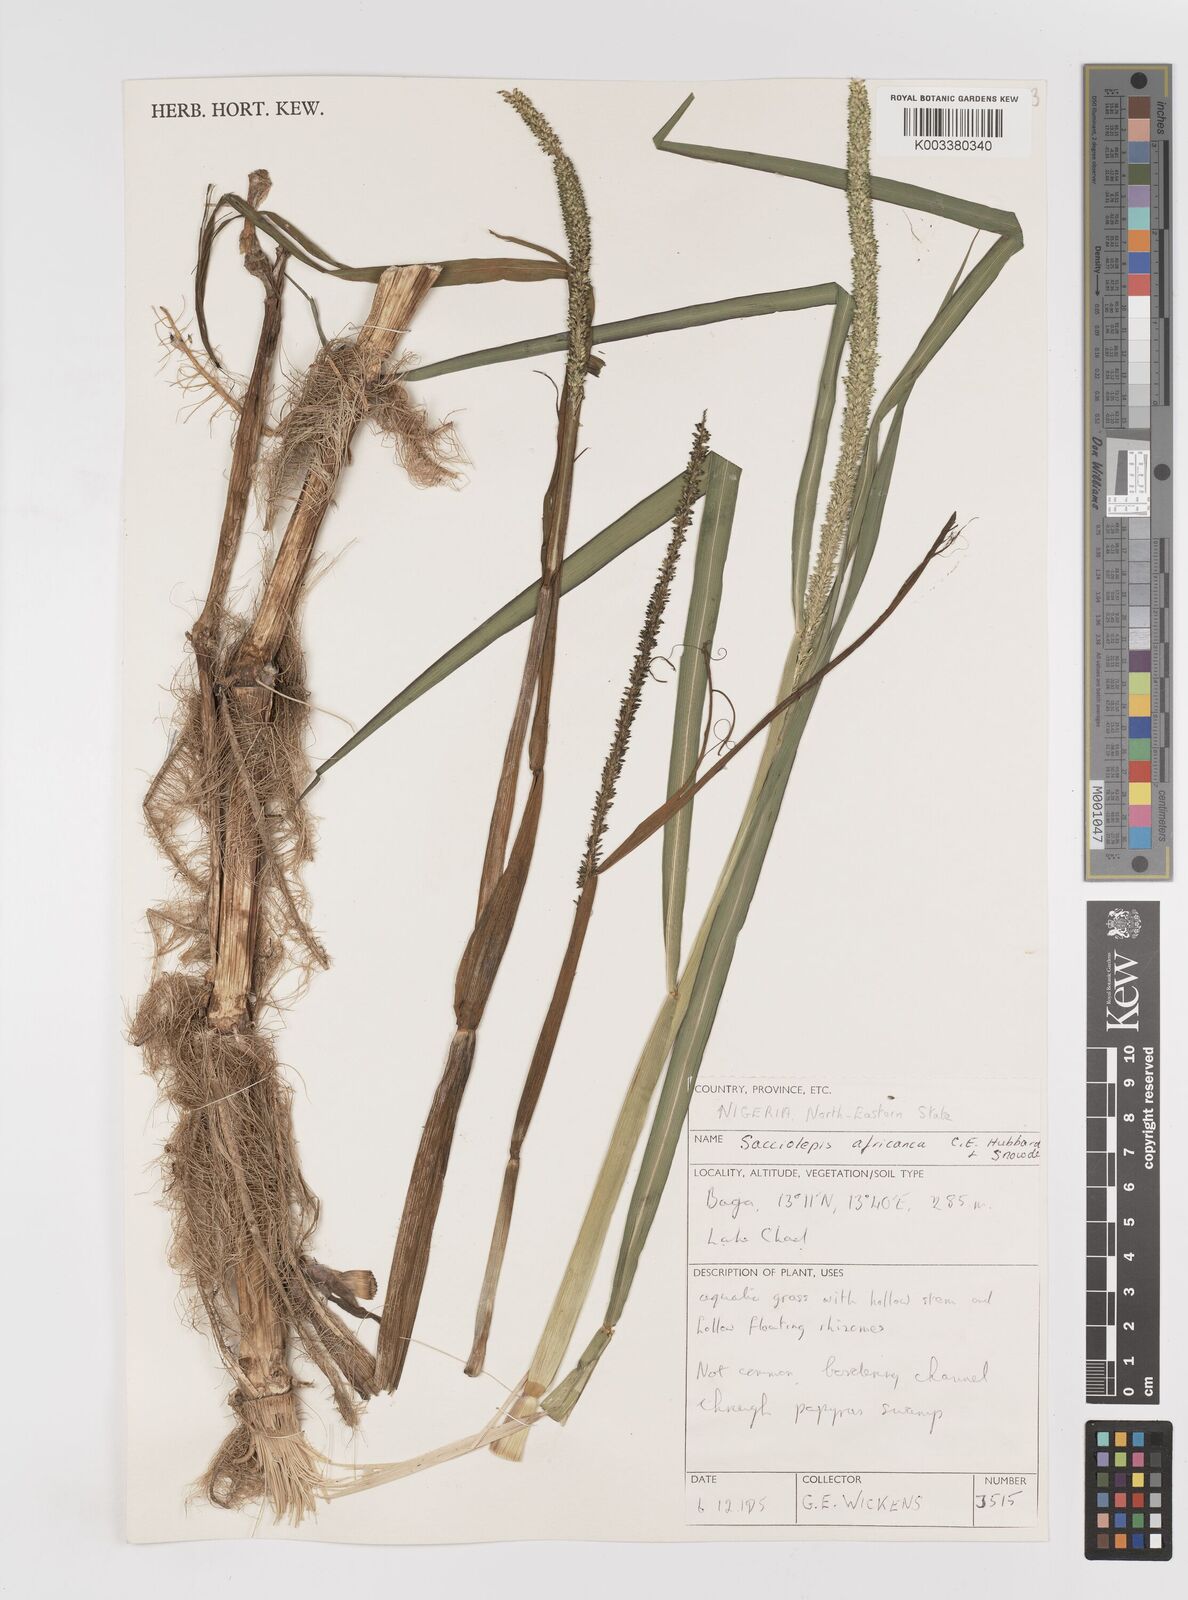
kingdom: Plantae
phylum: Tracheophyta
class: Liliopsida
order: Poales
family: Poaceae
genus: Sacciolepis
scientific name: Sacciolepis africana
